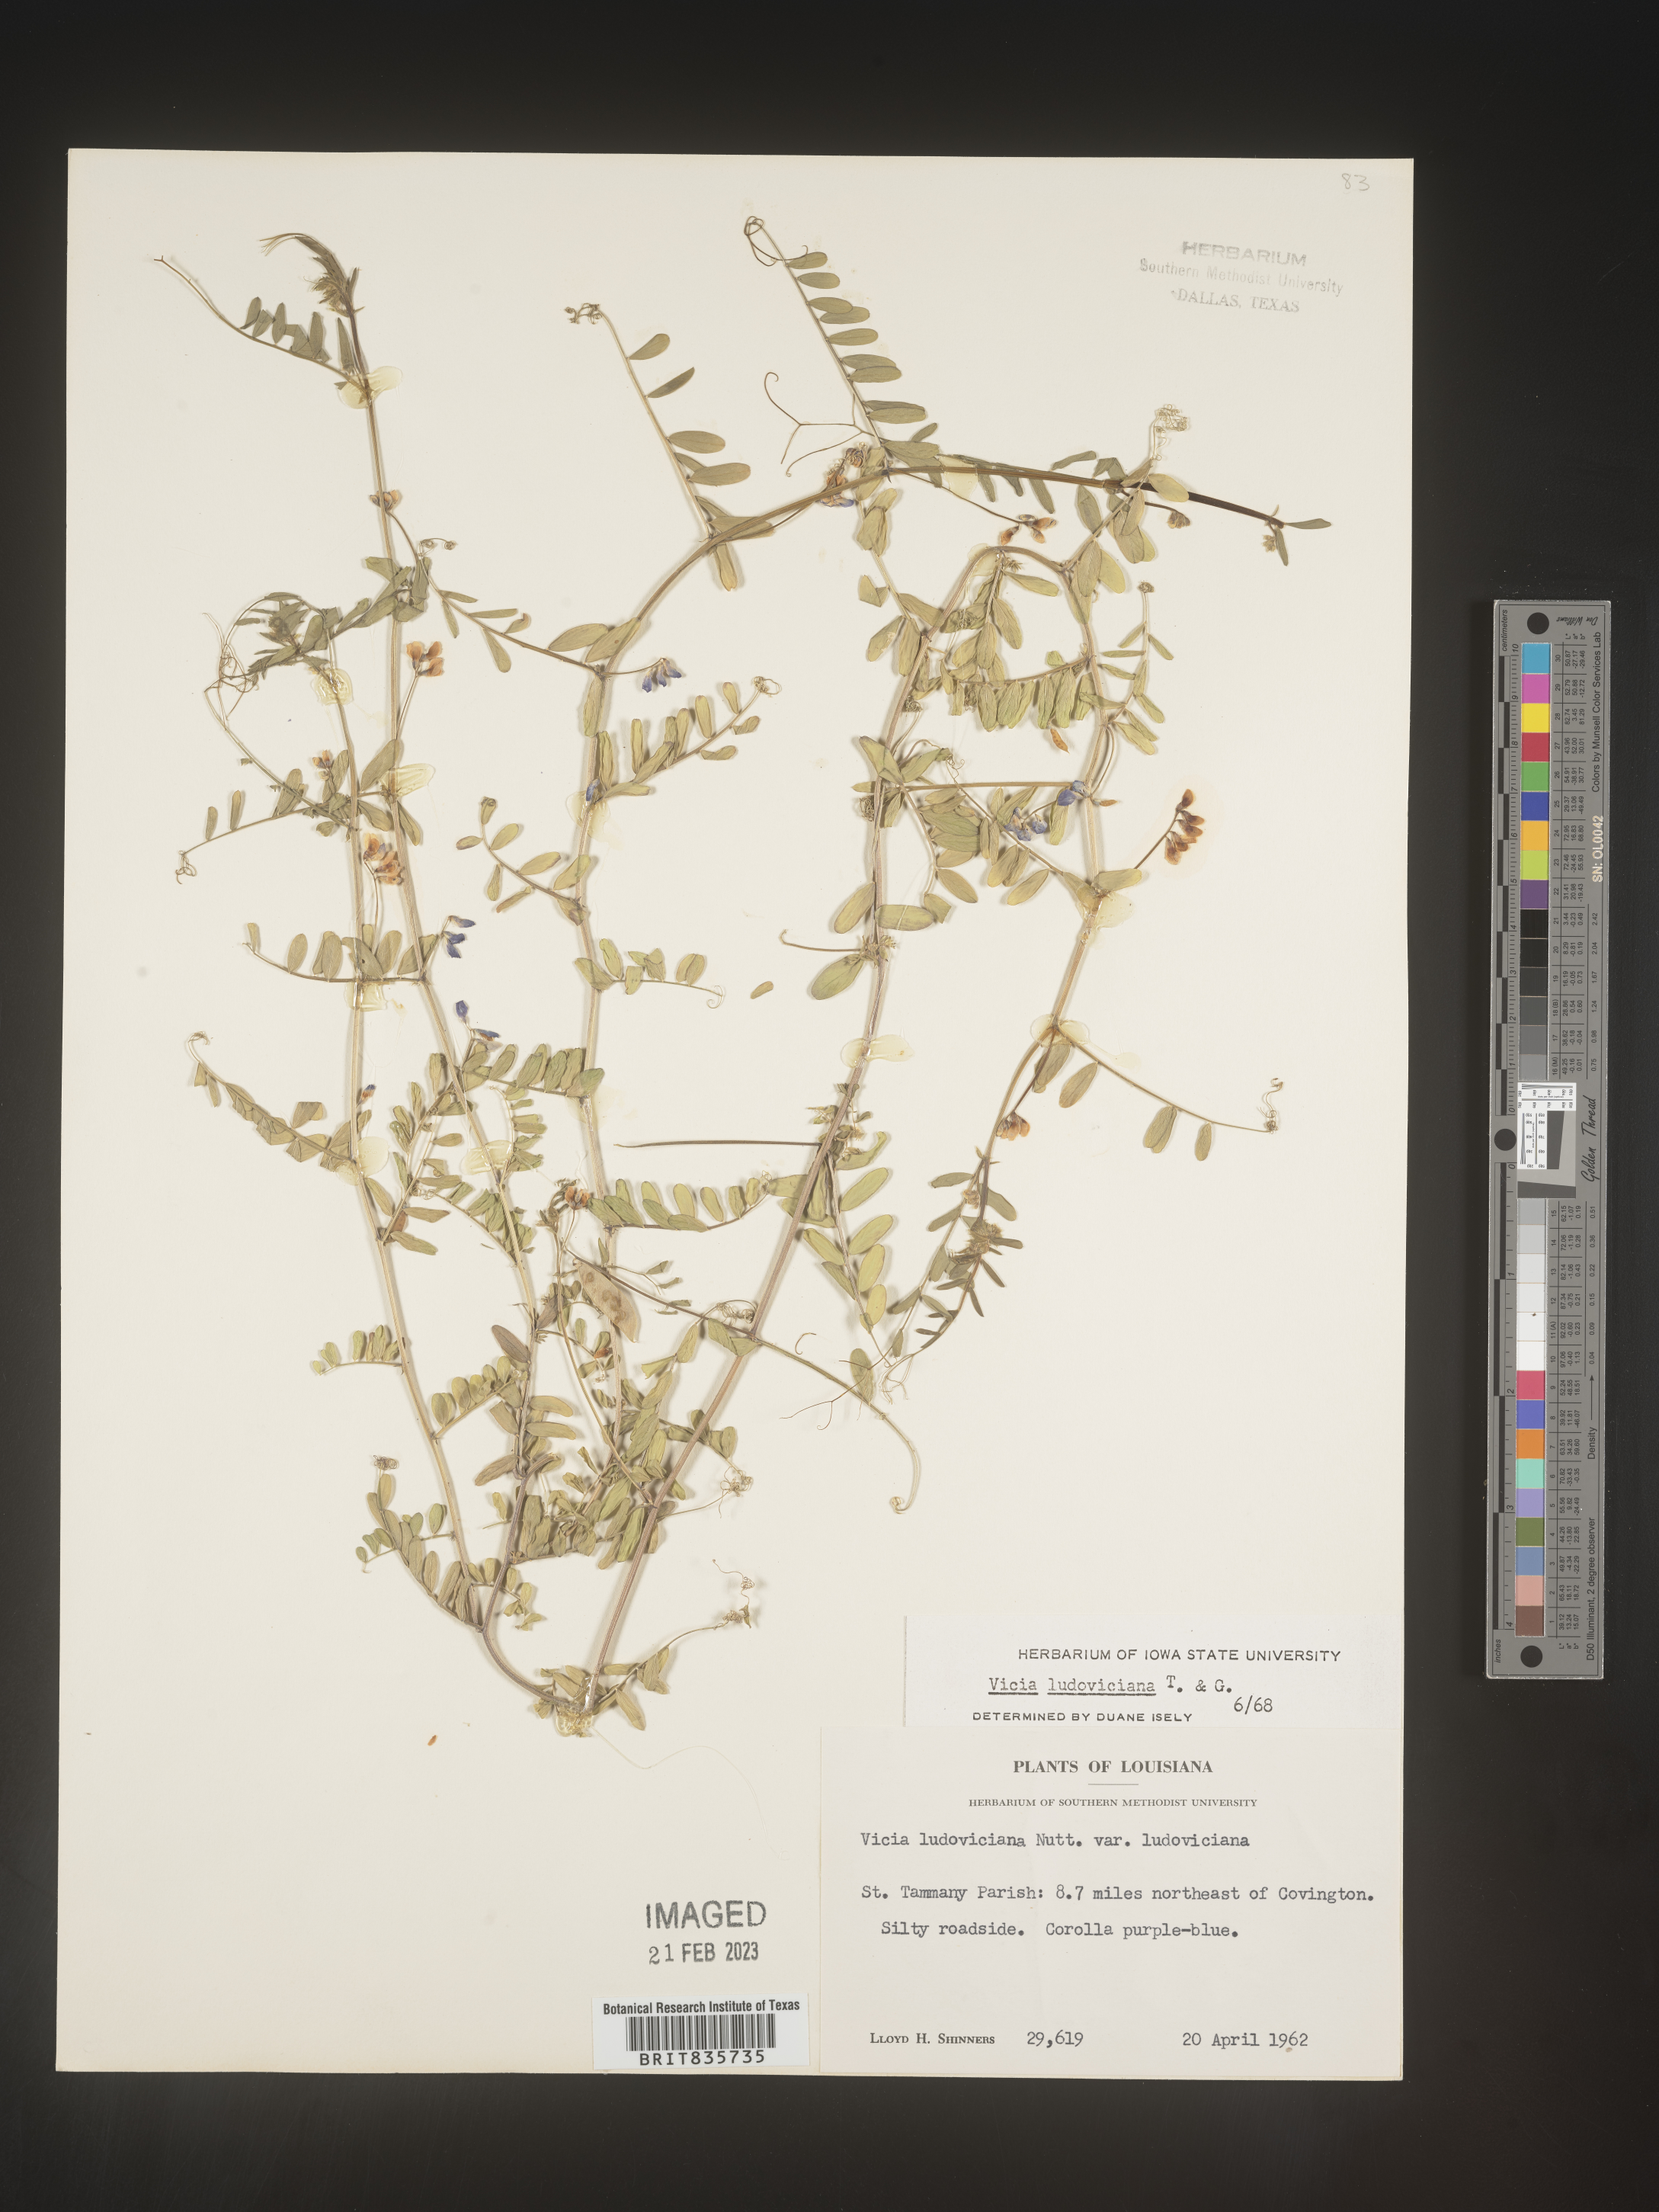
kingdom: Plantae
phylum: Tracheophyta
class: Magnoliopsida
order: Fabales
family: Fabaceae
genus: Vicia
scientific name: Vicia ludoviciana
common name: Louisiana vetch
